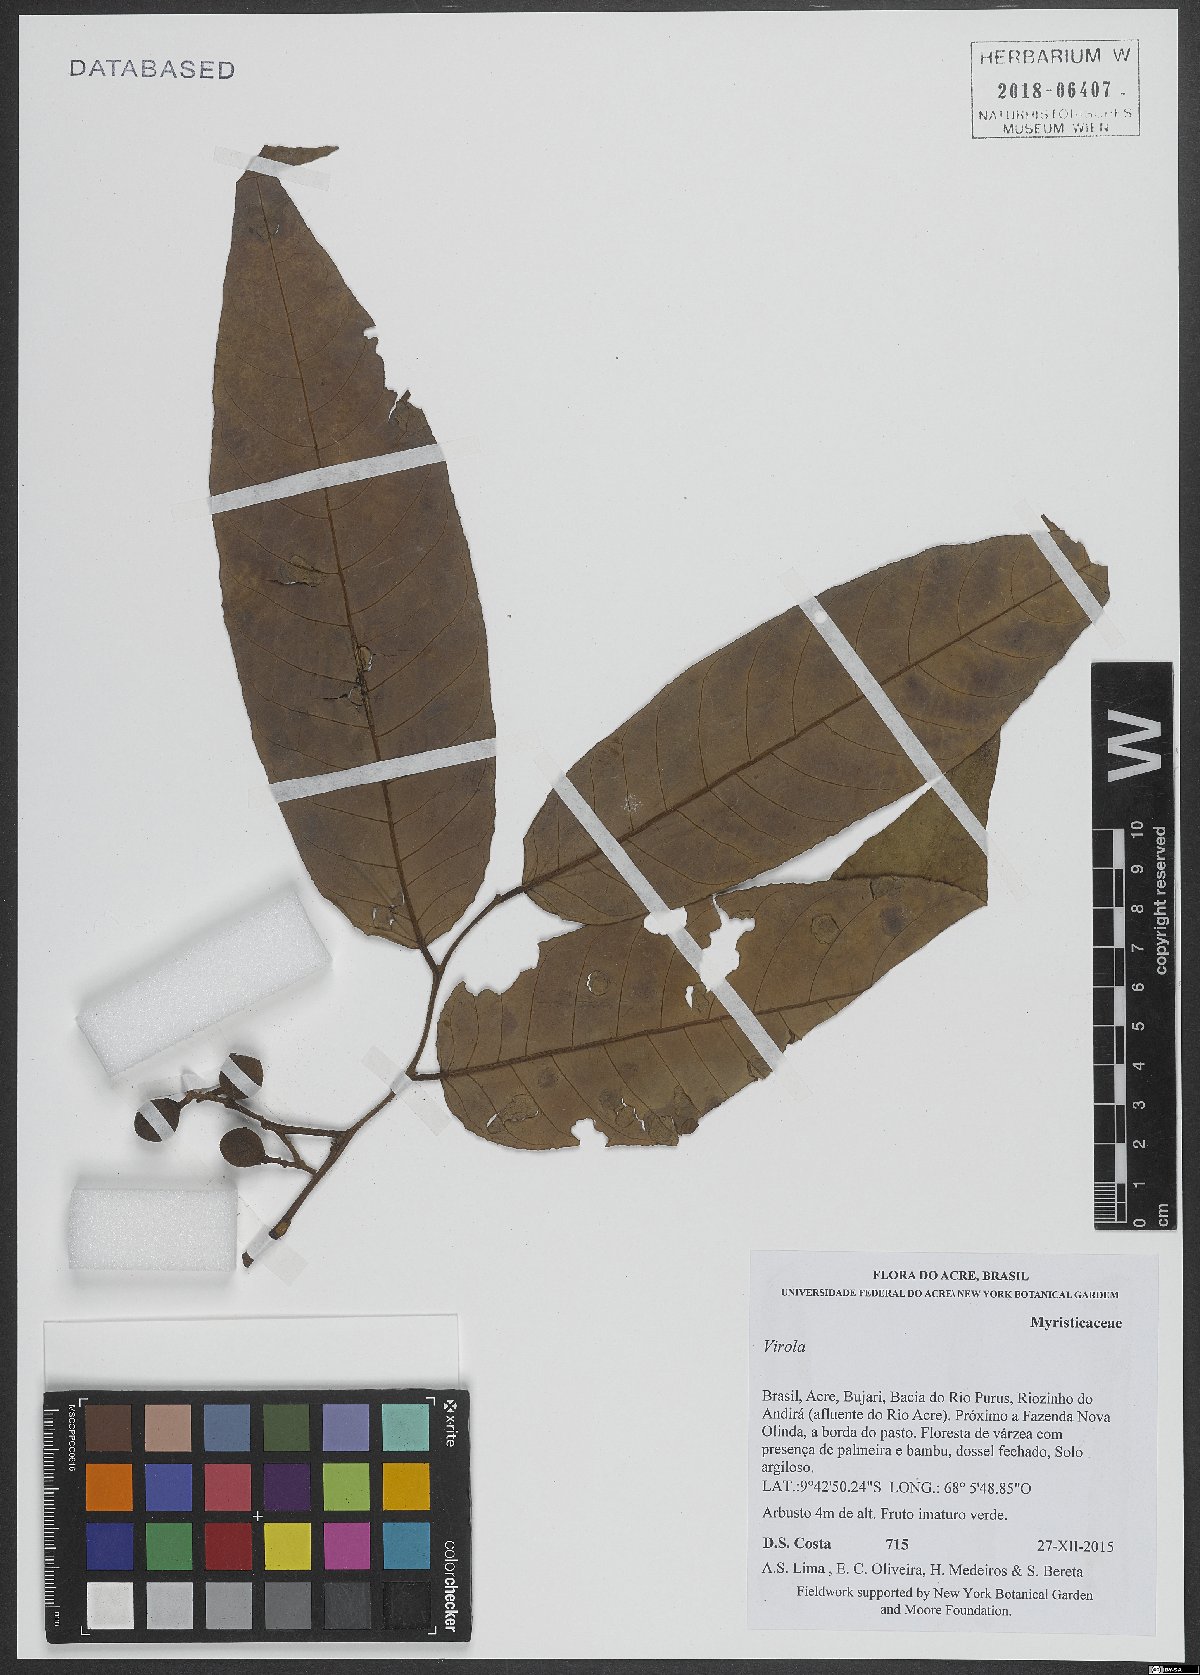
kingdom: Plantae
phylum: Tracheophyta
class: Magnoliopsida
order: Magnoliales
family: Myristicaceae
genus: Virola
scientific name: Virola
